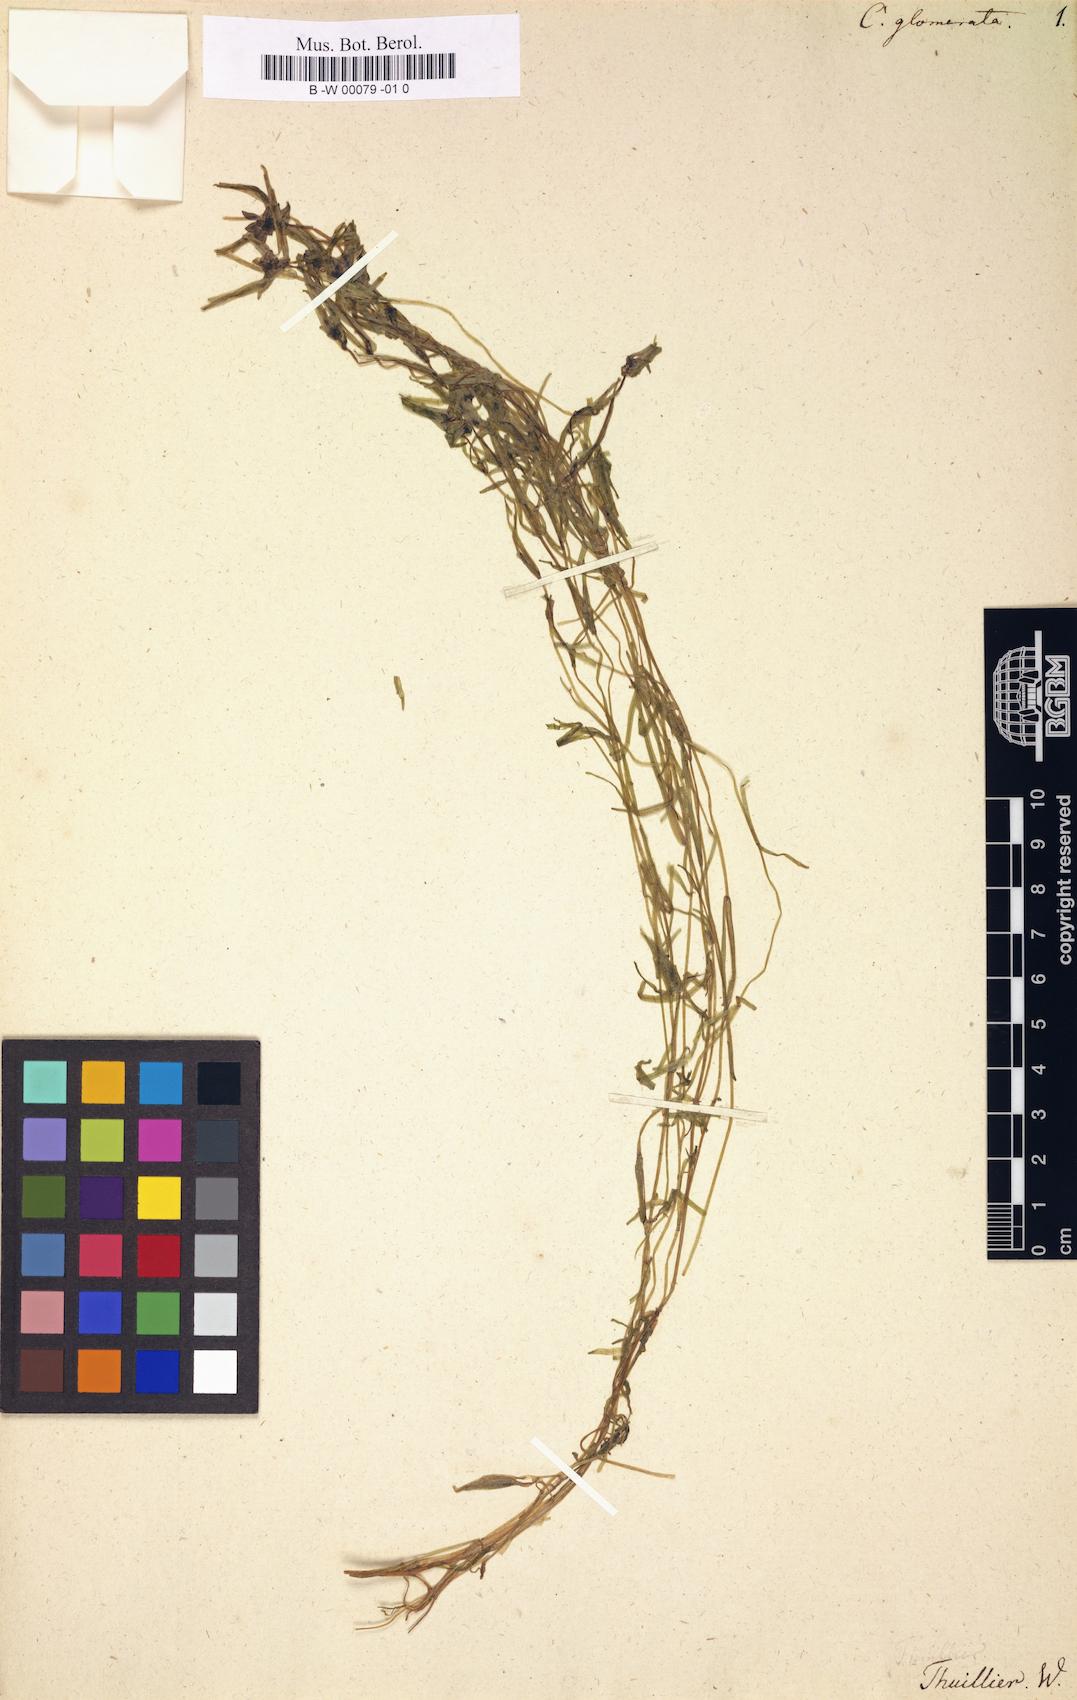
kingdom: Plantae
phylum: Tracheophyta
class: Magnoliopsida
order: Lamiales
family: Plantaginaceae
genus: Callitriche
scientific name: Callitriche hermaphroditica
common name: Autumnal water-starwort
